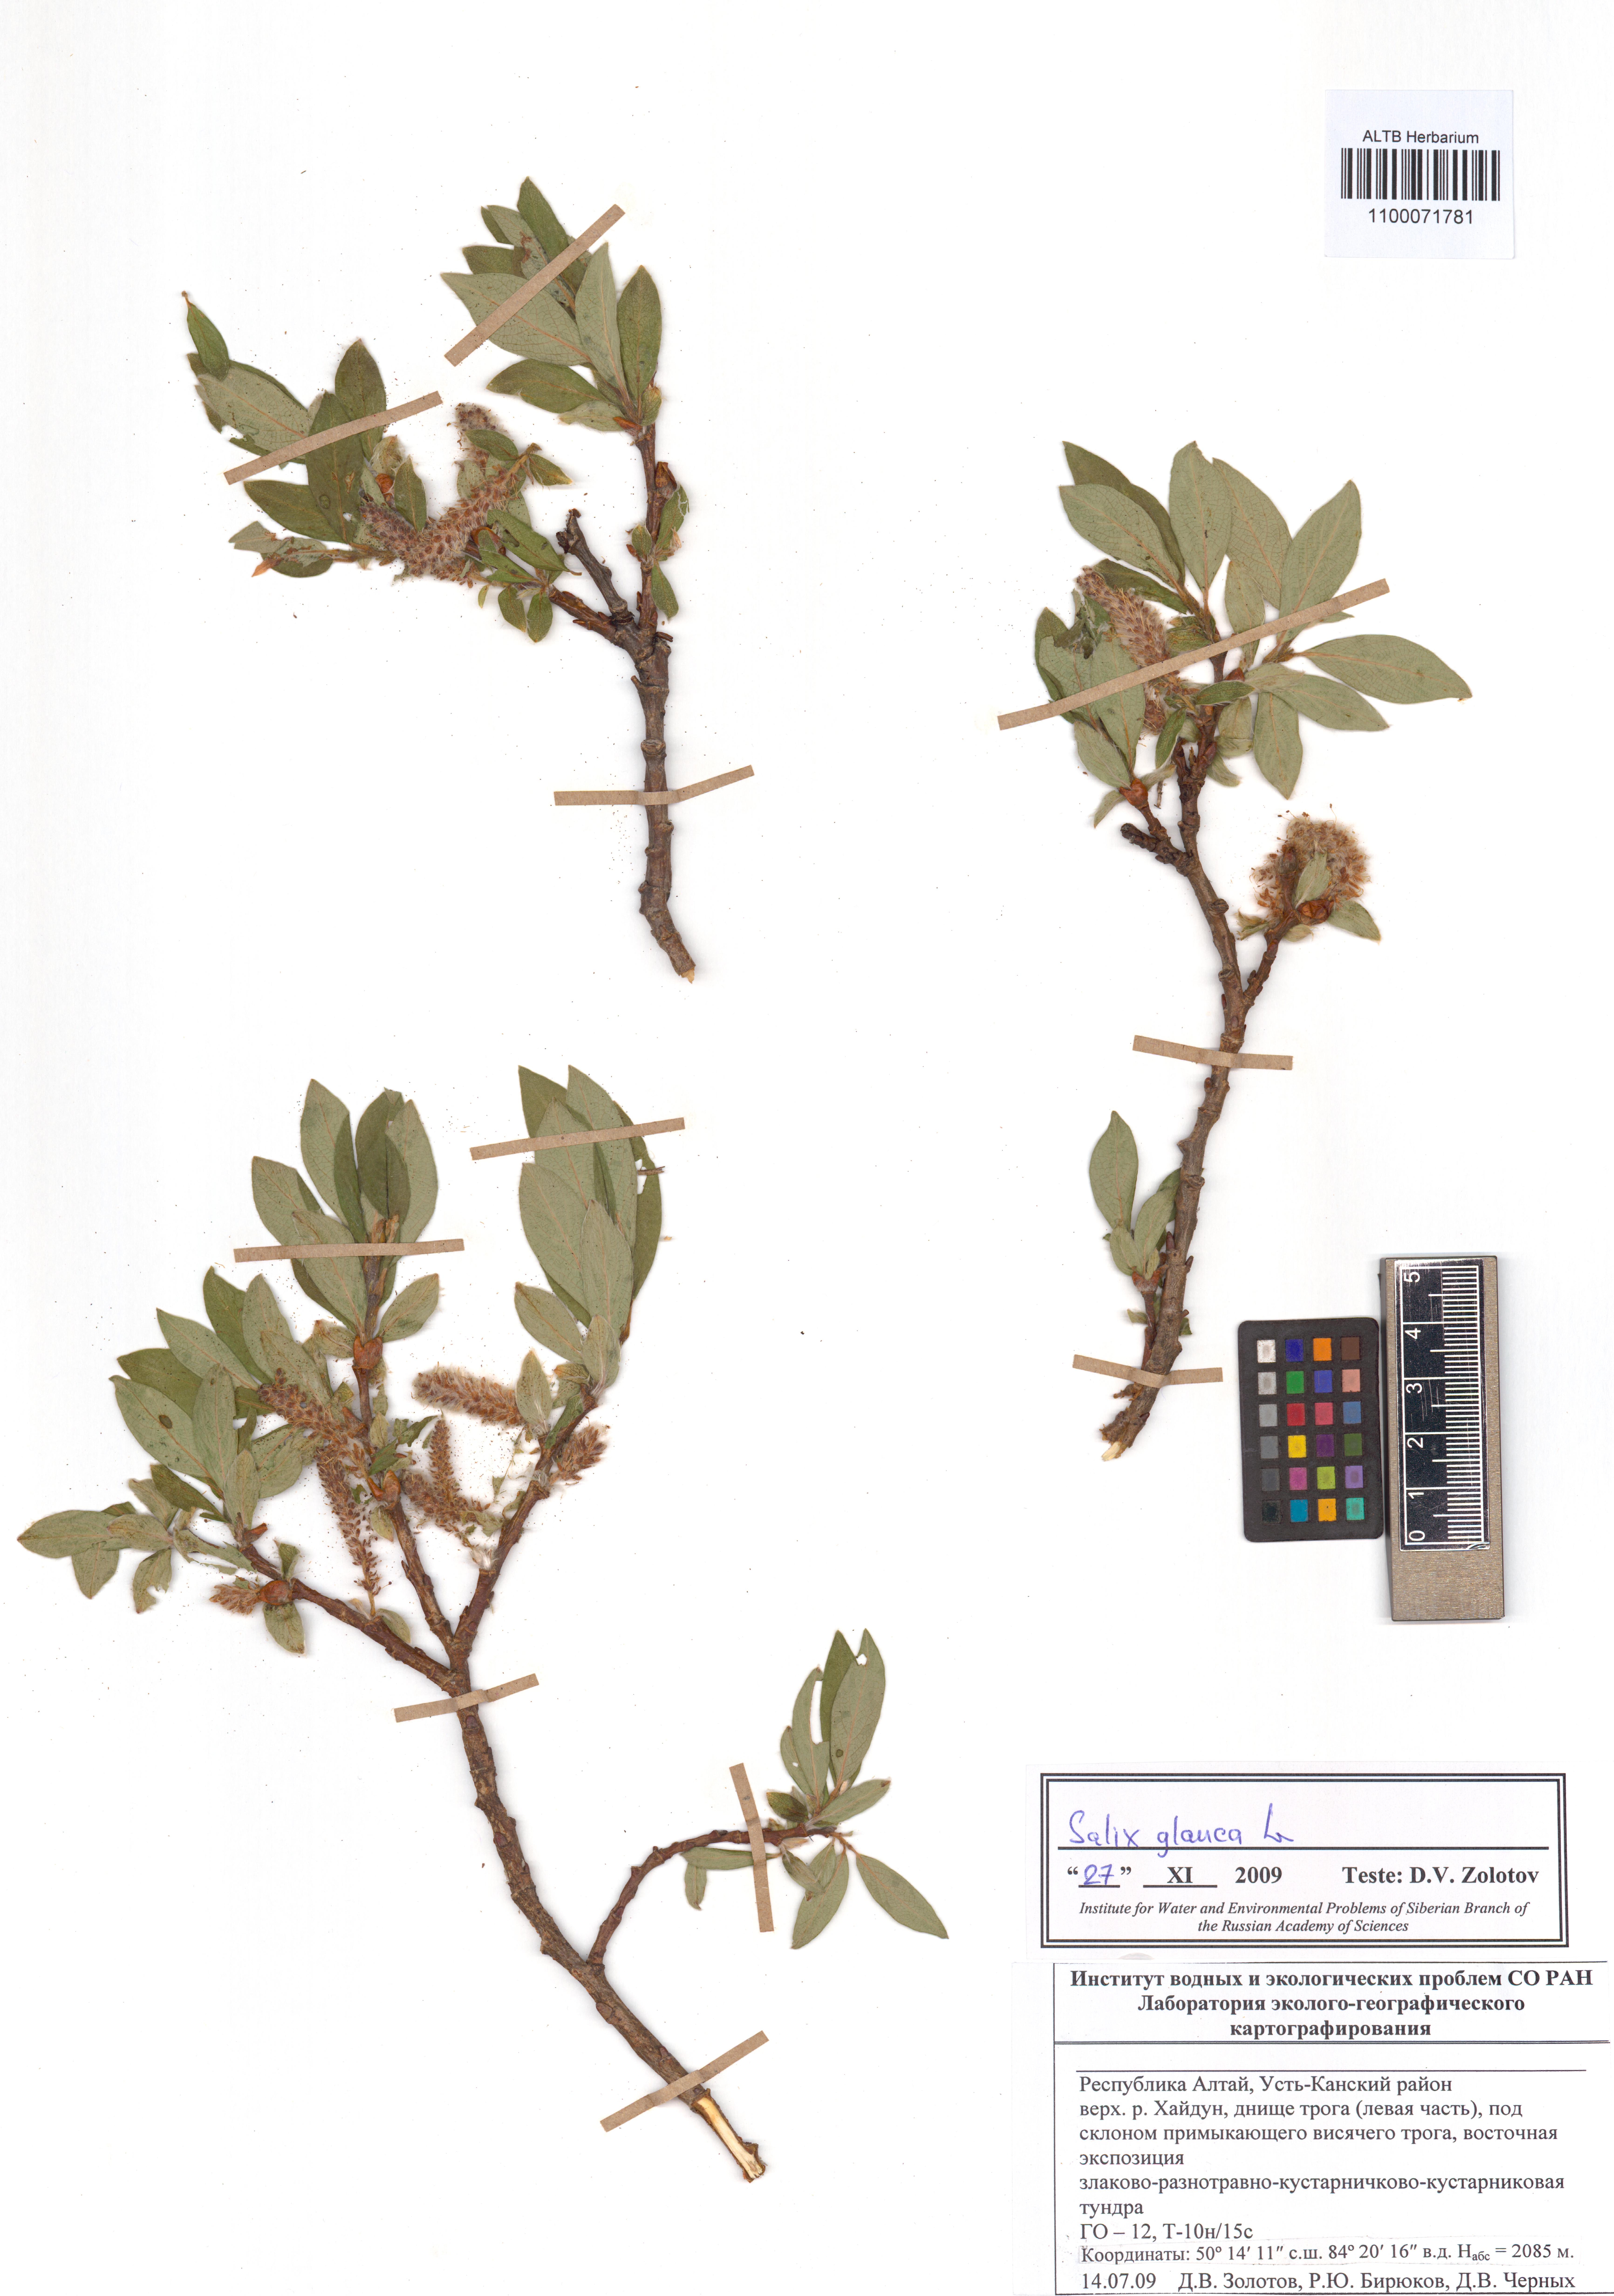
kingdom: Plantae
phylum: Tracheophyta
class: Magnoliopsida
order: Malpighiales
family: Salicaceae
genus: Salix
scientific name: Salix glauca
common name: Glaucous willow
